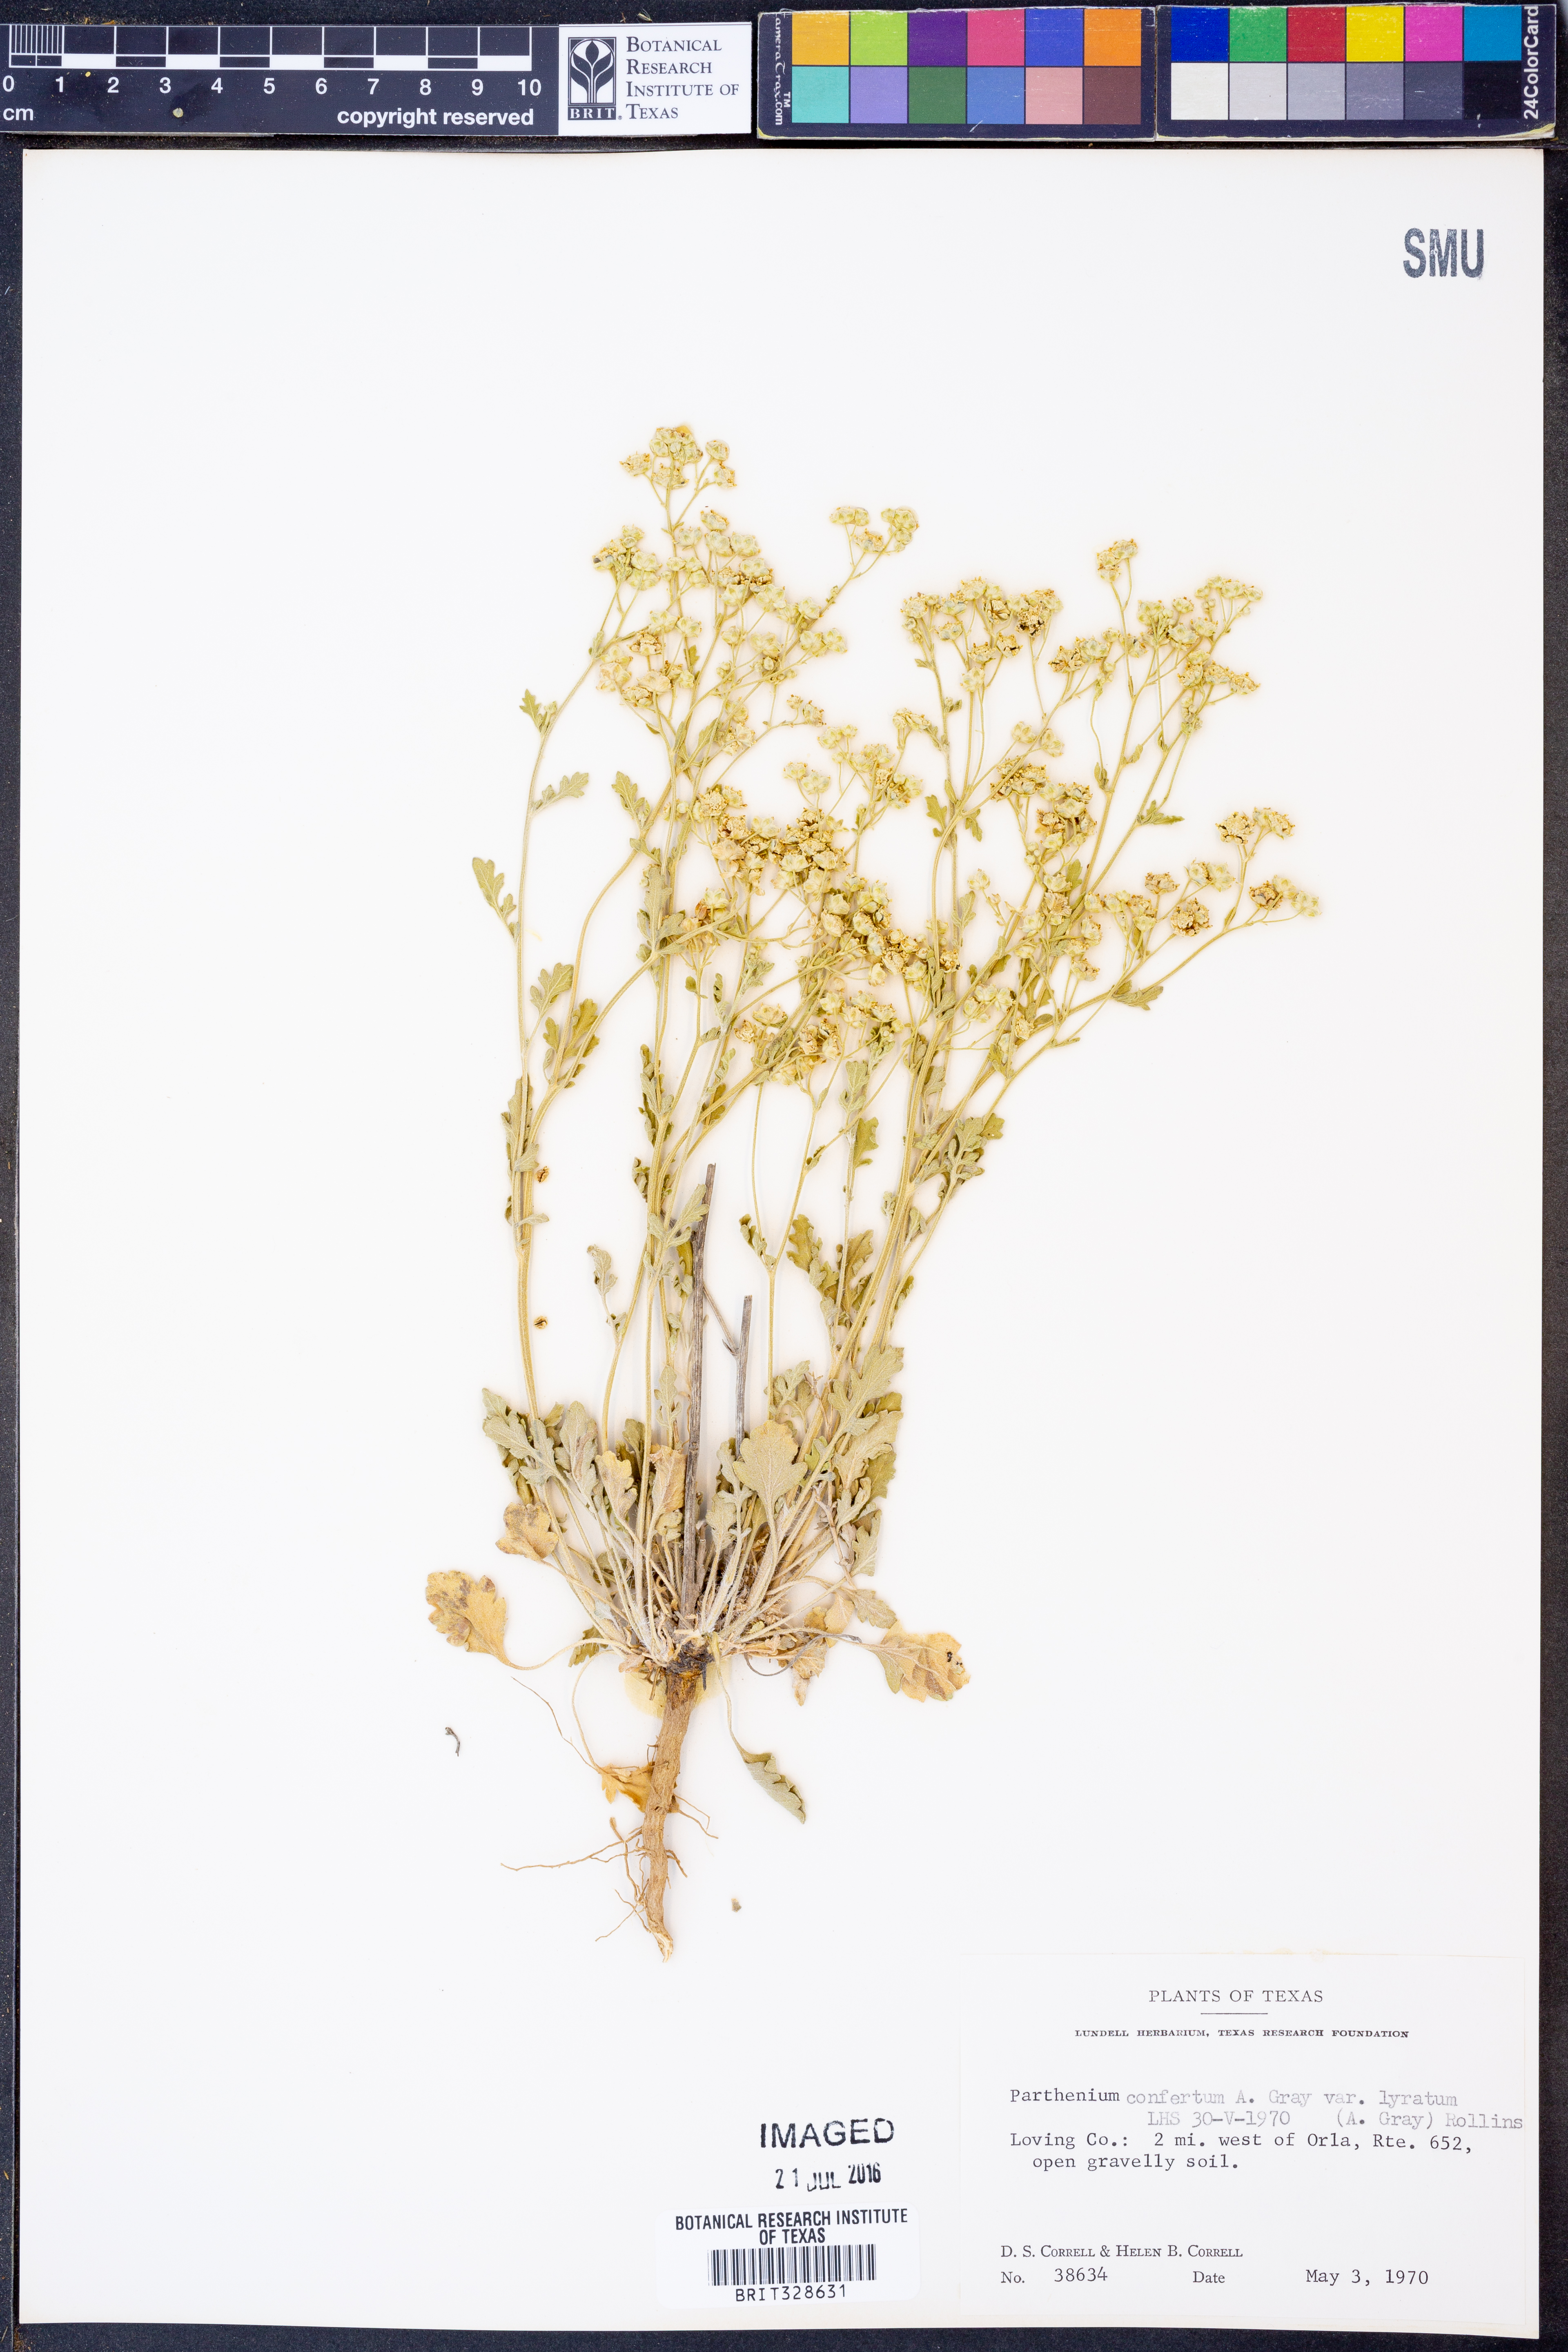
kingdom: Plantae
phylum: Tracheophyta
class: Magnoliopsida
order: Asterales
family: Asteraceae
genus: Parthenium
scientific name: Parthenium confertum
